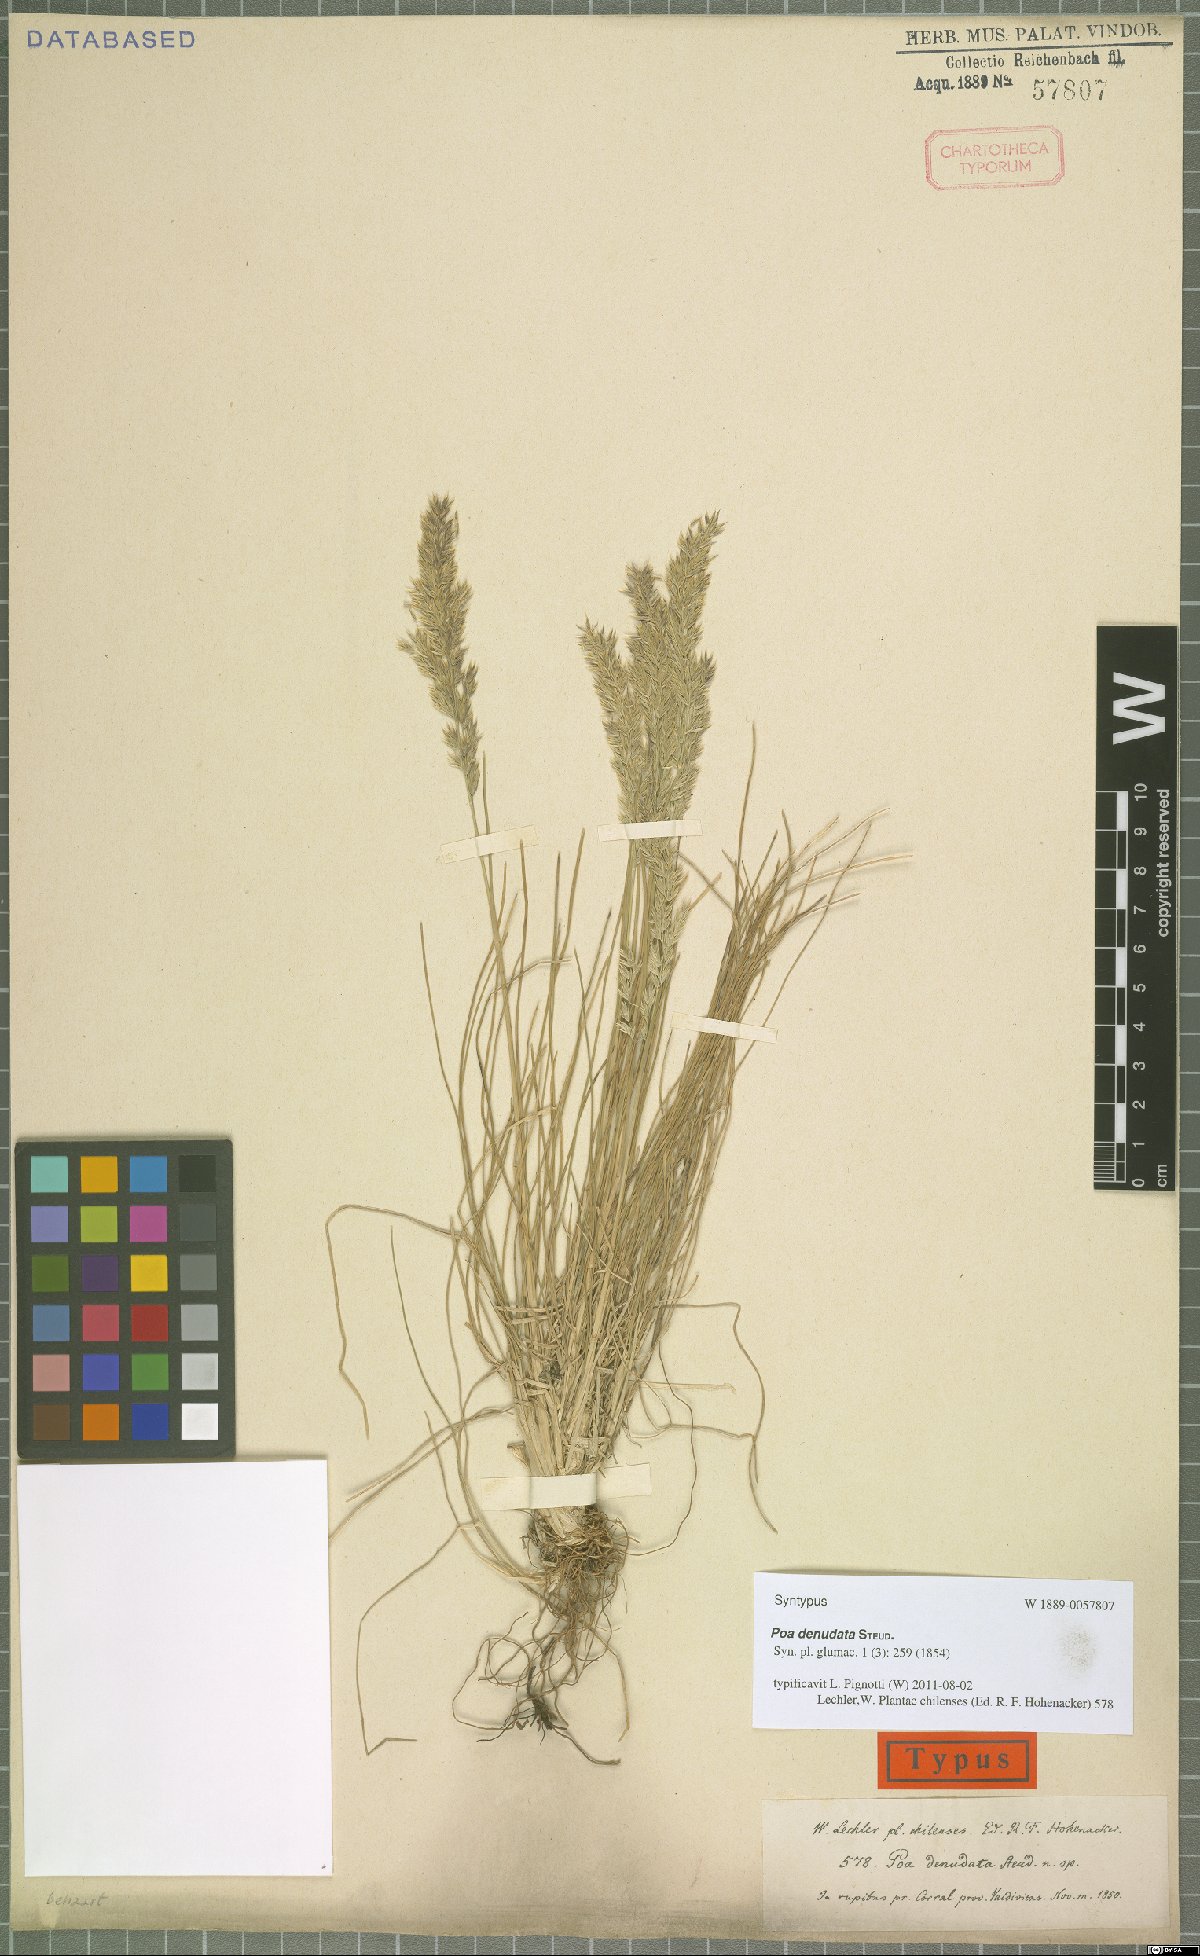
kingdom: Plantae
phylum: Tracheophyta
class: Liliopsida
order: Poales
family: Poaceae
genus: Poa
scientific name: Poa denudata
